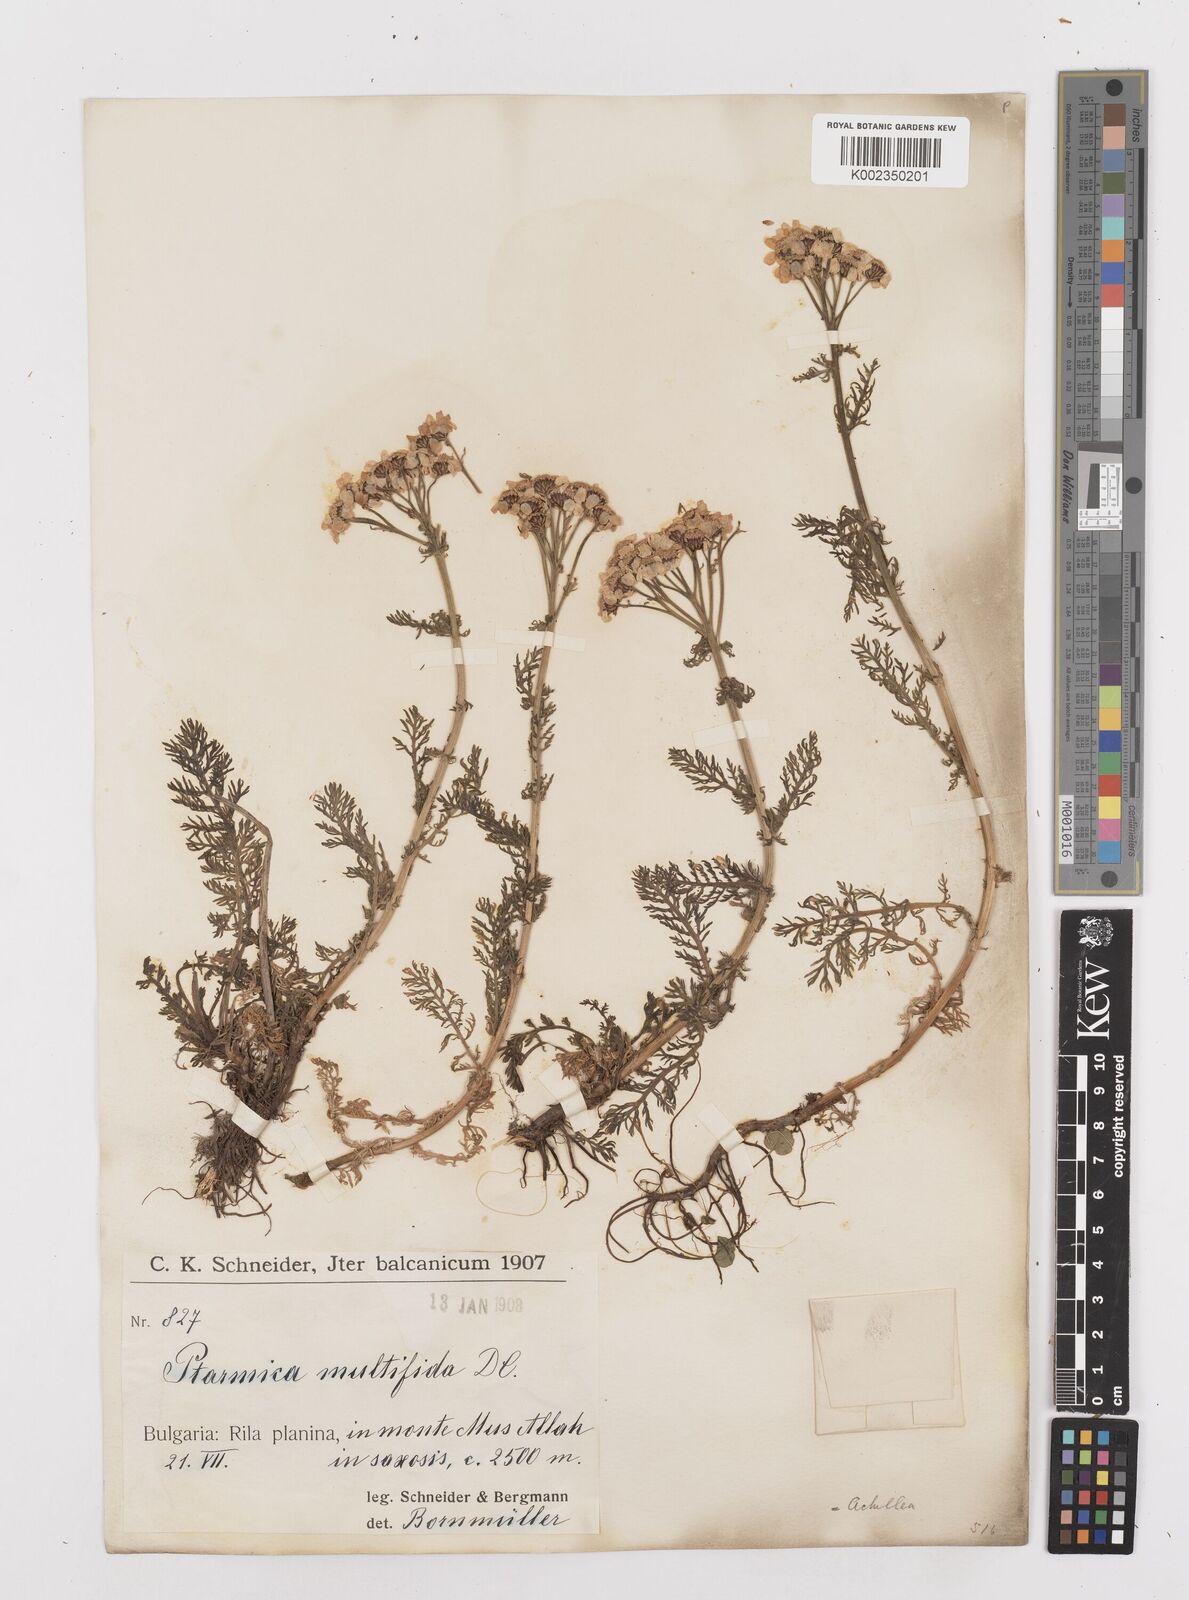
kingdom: Plantae
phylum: Tracheophyta
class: Magnoliopsida
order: Asterales
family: Asteraceae
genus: Achillea
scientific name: Achillea multifida
